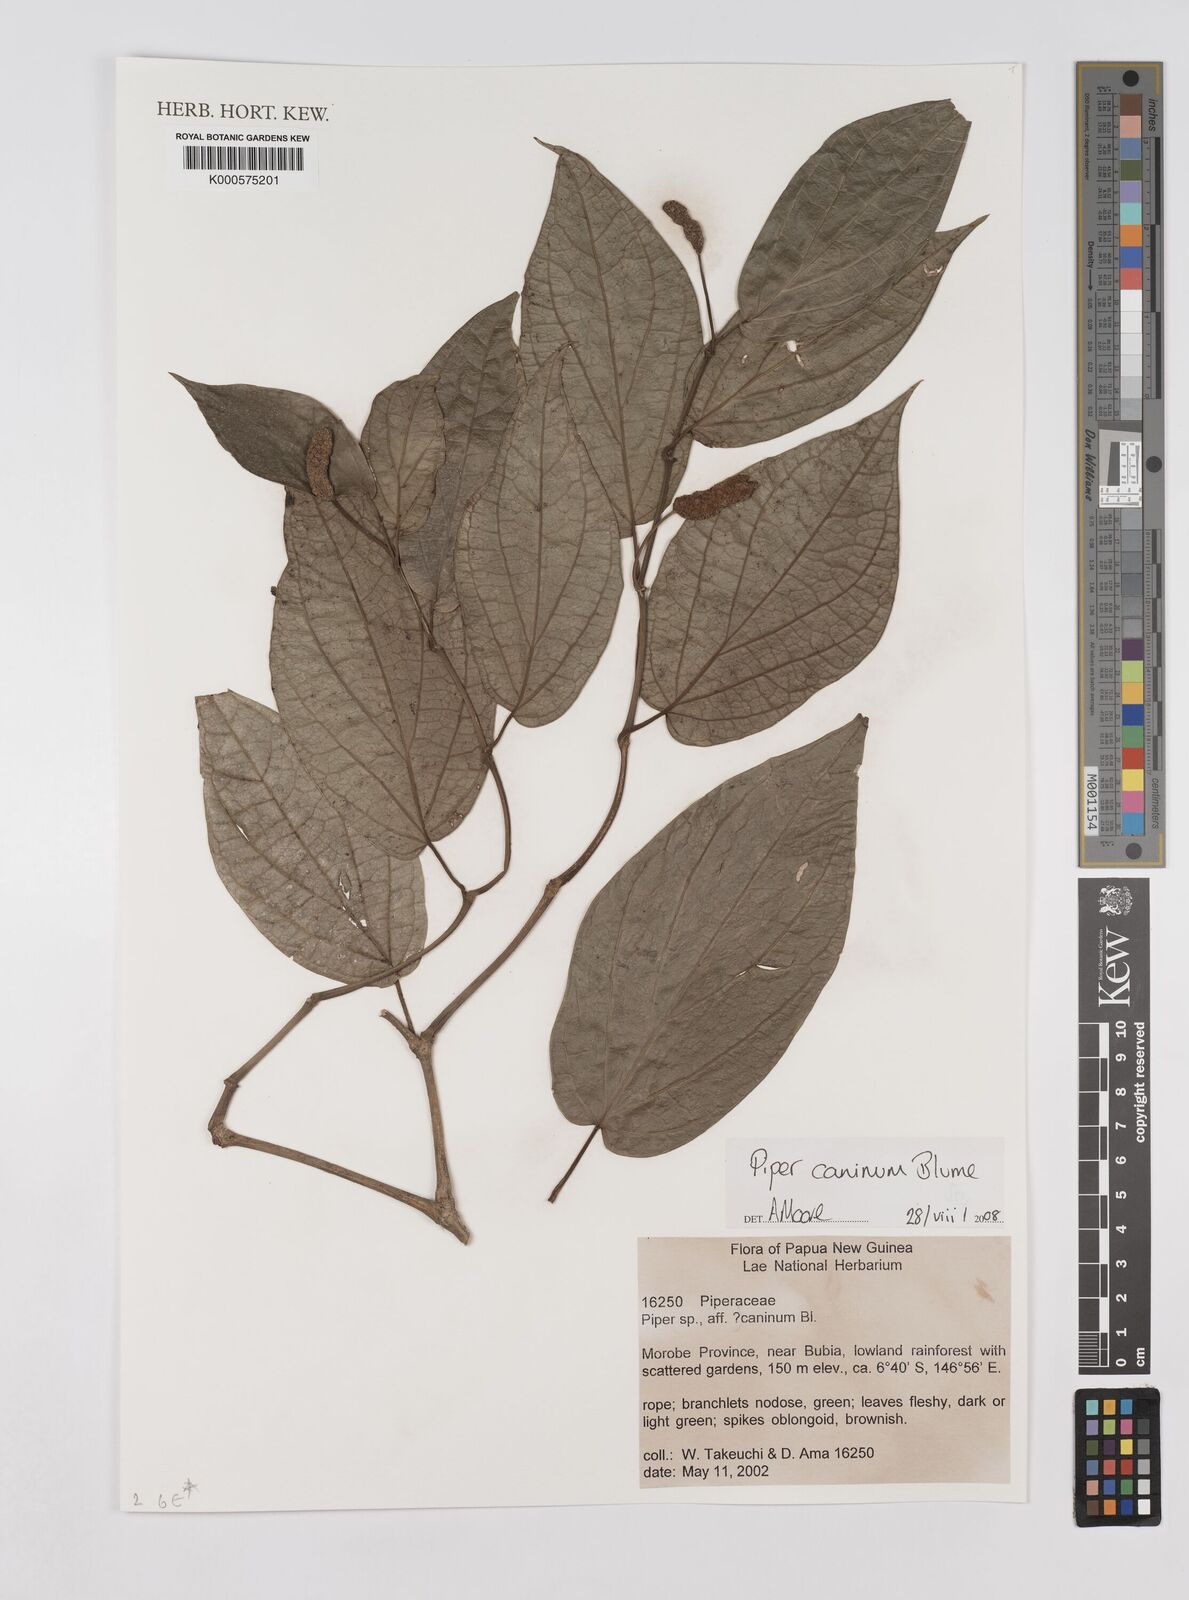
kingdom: Plantae
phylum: Tracheophyta
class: Magnoliopsida
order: Piperales
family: Piperaceae
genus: Piper
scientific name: Piper lanatum
